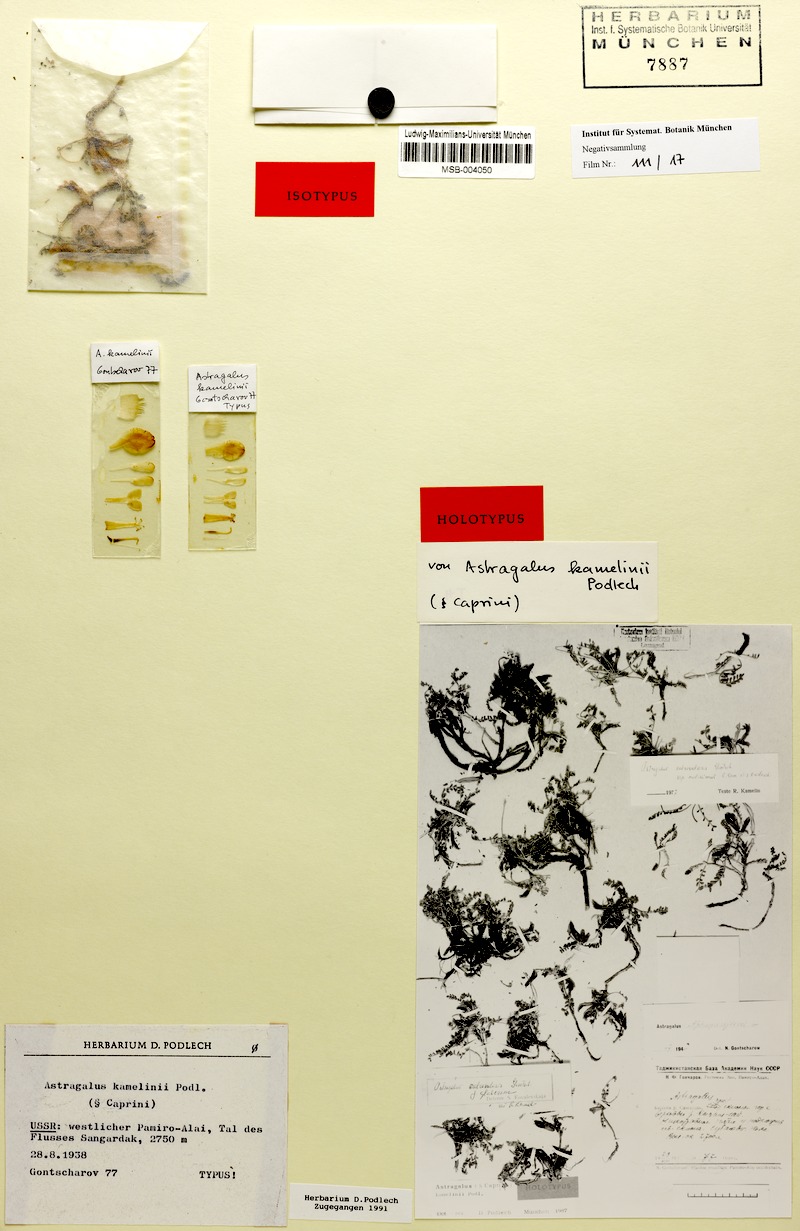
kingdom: Plantae
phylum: Tracheophyta
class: Magnoliopsida
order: Fabales
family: Fabaceae
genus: Astragalus
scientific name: Astragalus kamelinii
